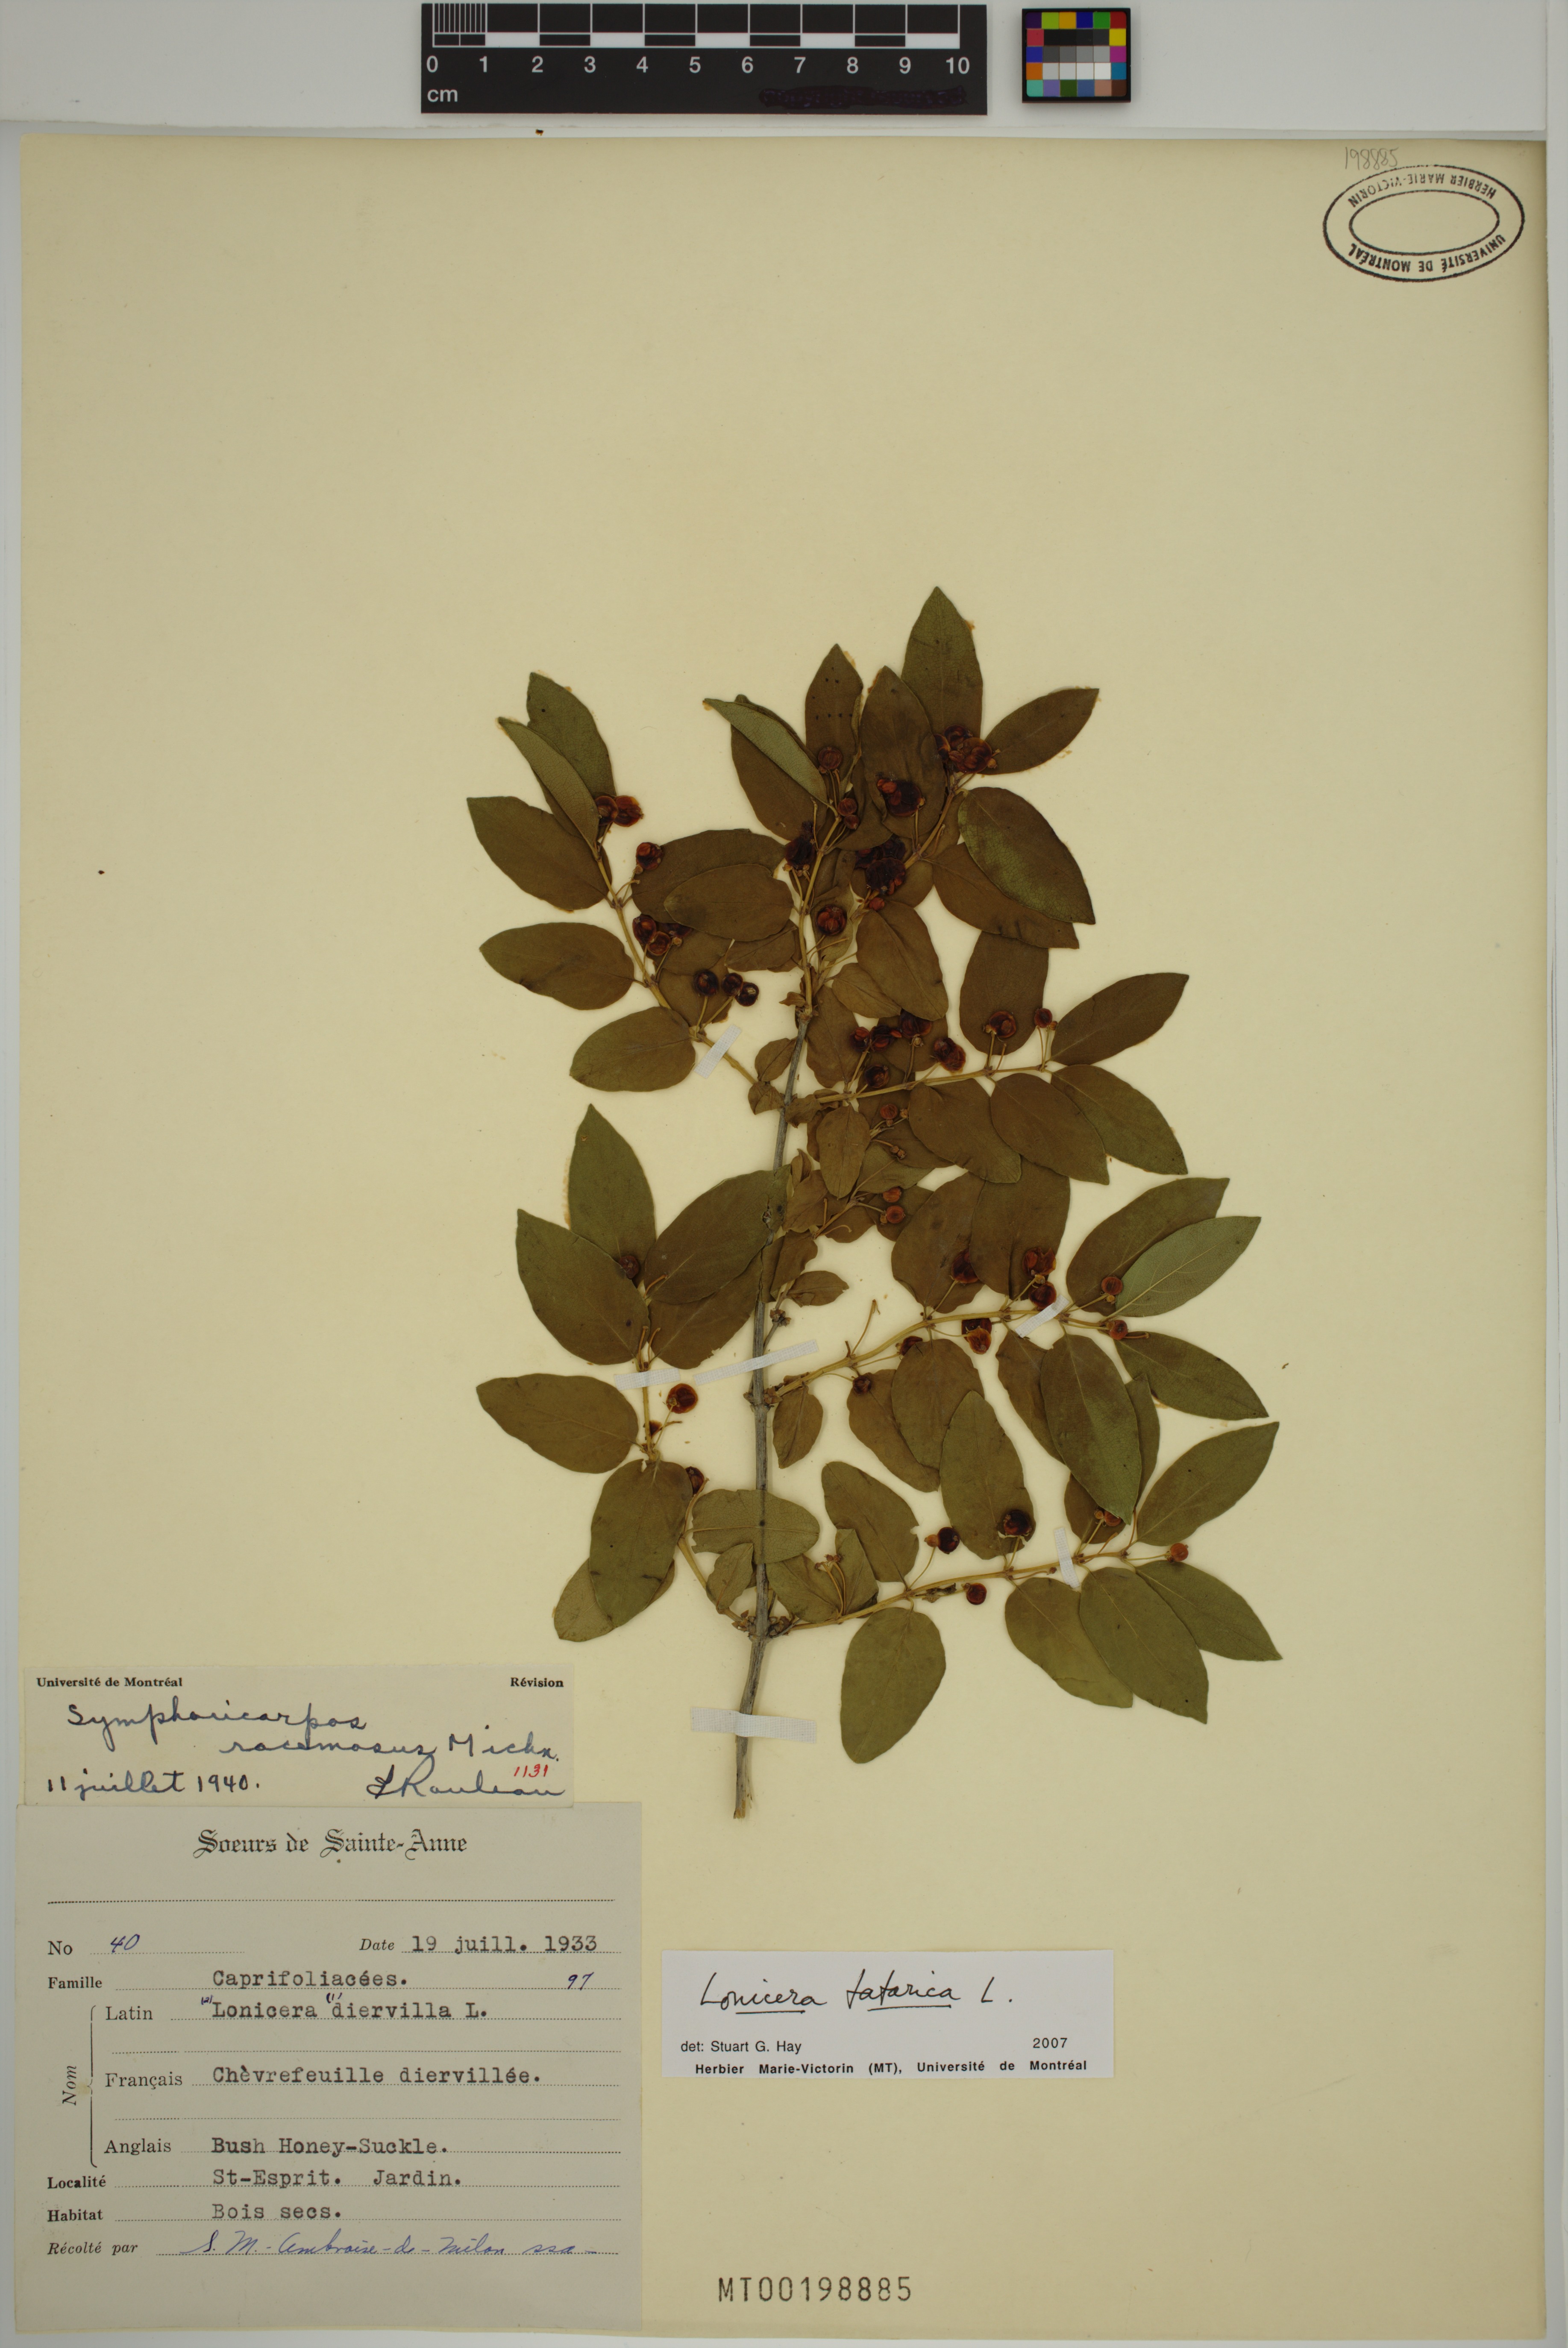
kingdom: Plantae
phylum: Tracheophyta
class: Magnoliopsida
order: Dipsacales
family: Caprifoliaceae
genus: Lonicera
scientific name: Lonicera tatarica
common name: Tatarian honeysuckle
